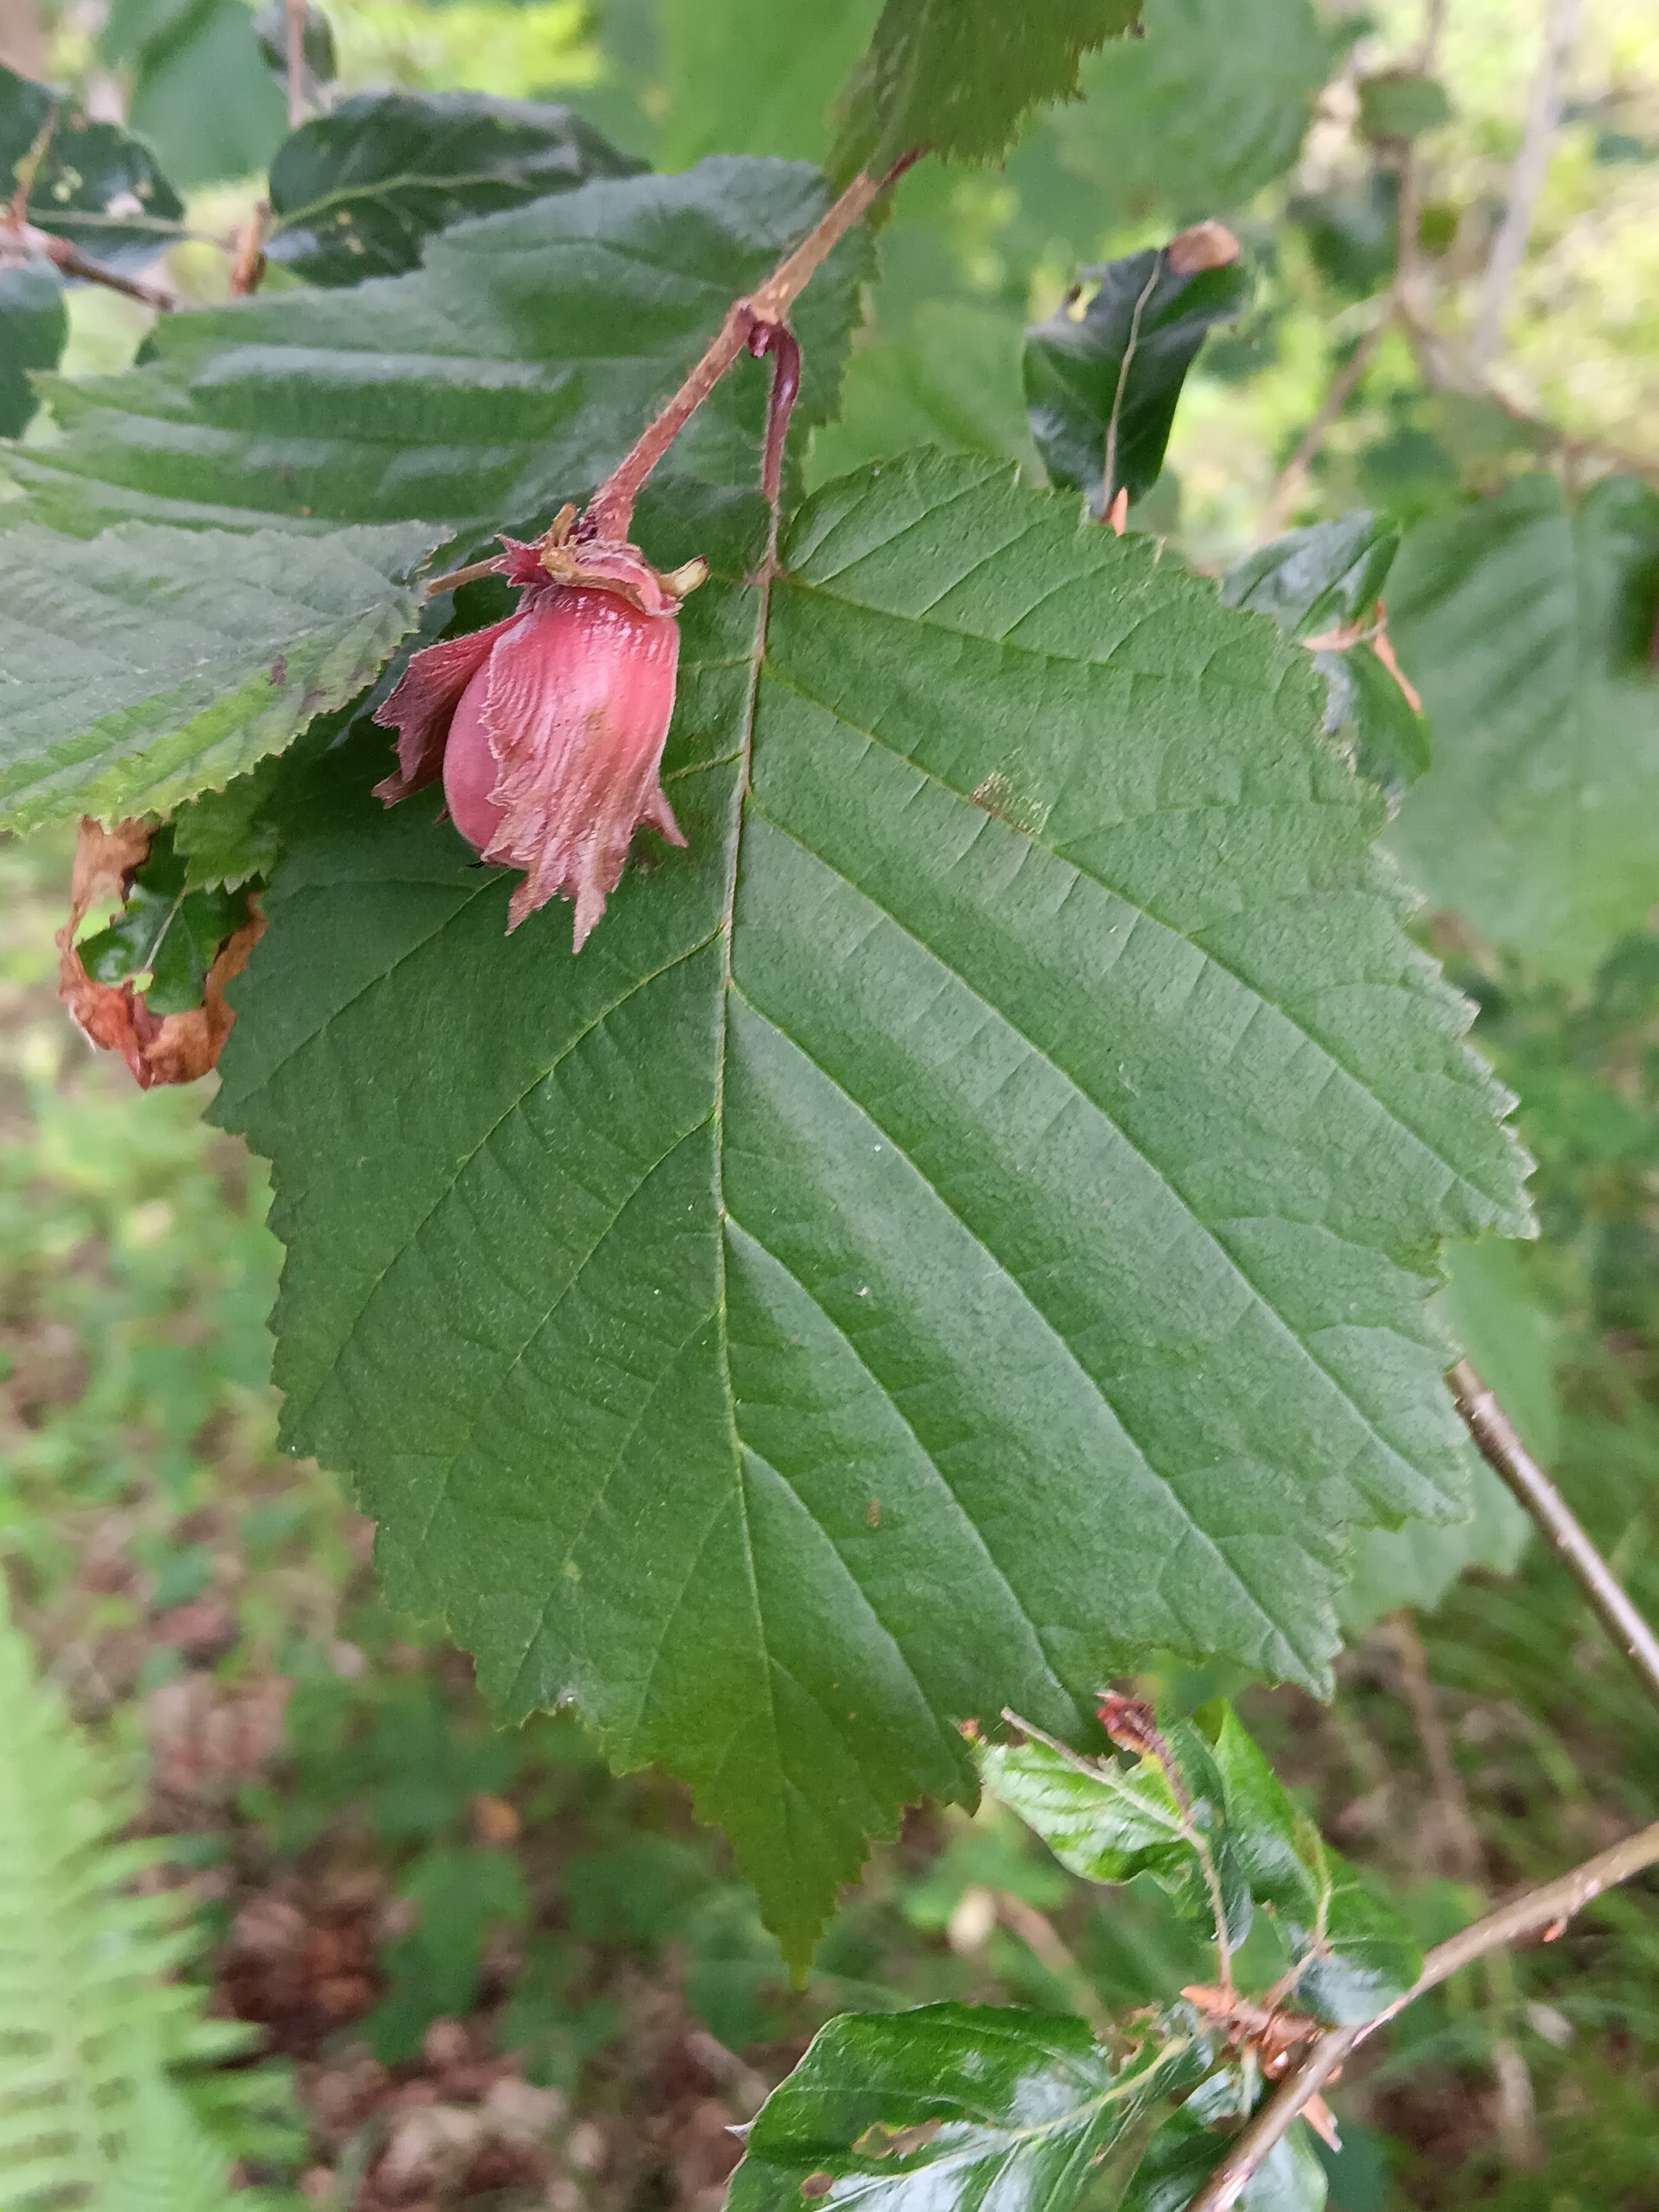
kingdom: Plantae
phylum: Tracheophyta
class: Magnoliopsida
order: Fagales
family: Betulaceae
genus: Corylus
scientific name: Corylus avellana
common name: Hassel
